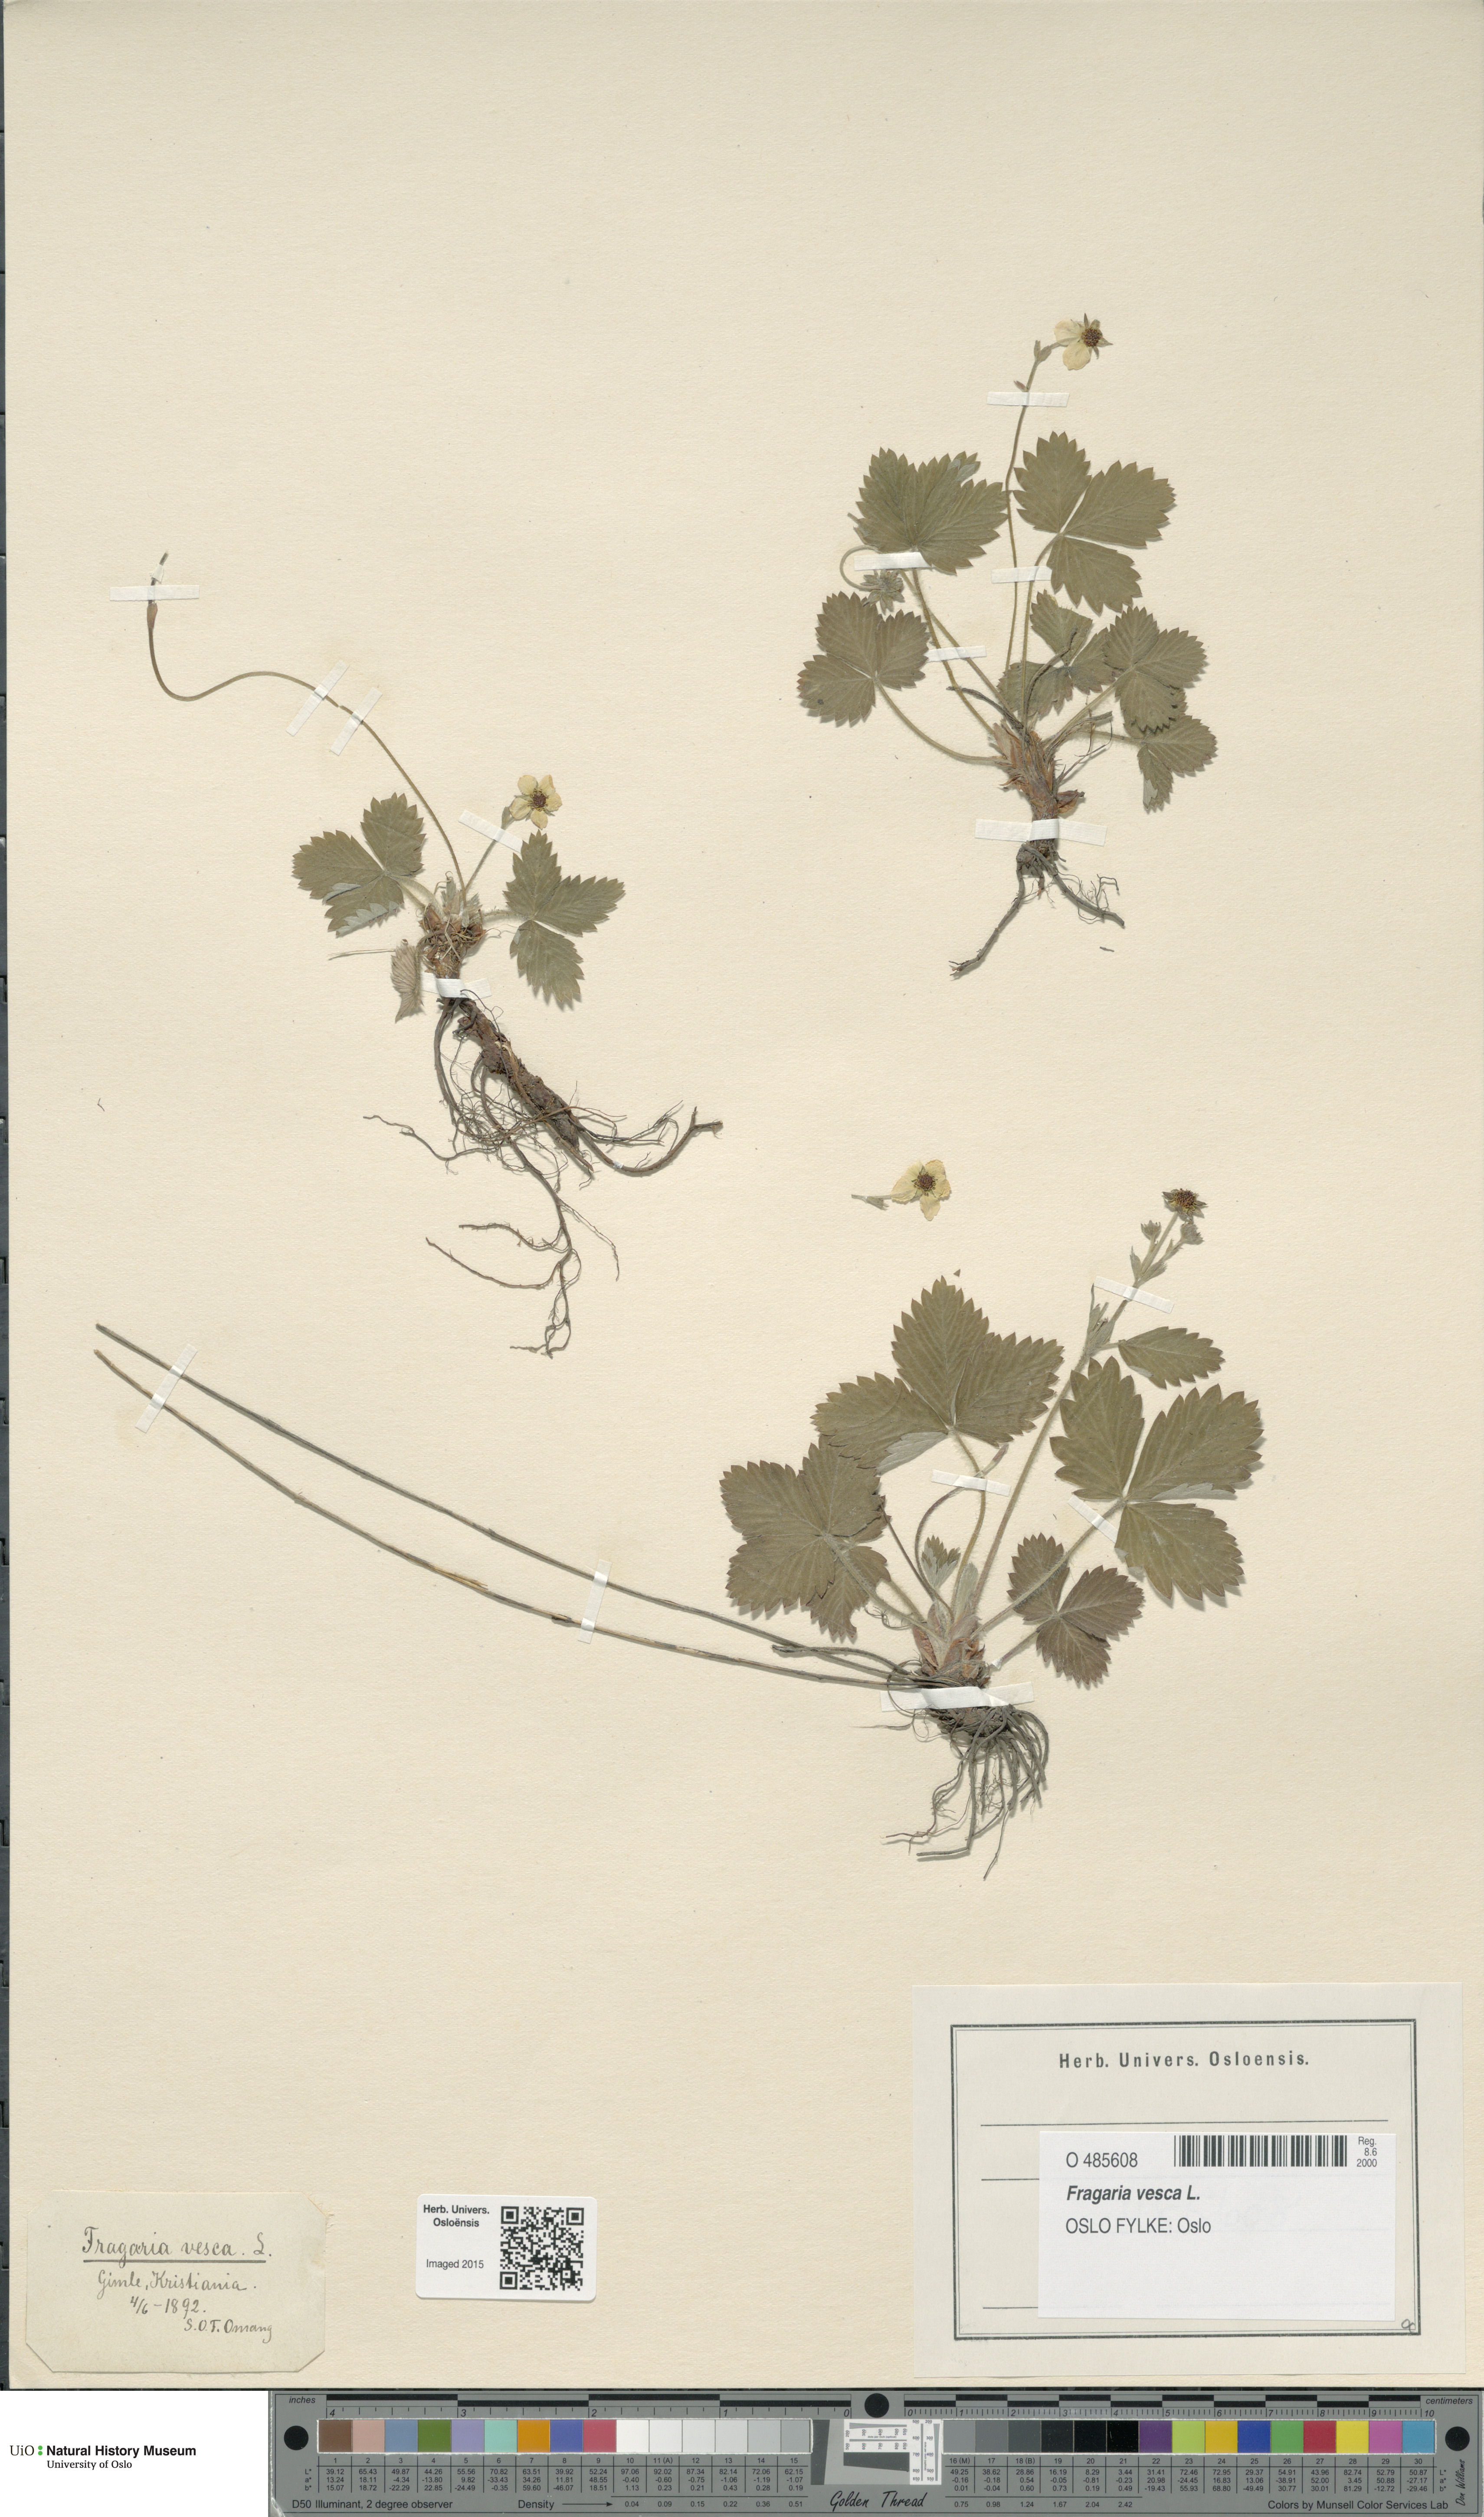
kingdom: Plantae
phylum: Tracheophyta
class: Magnoliopsida
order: Rosales
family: Rosaceae
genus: Fragaria
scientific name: Fragaria vesca
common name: Wild strawberry
